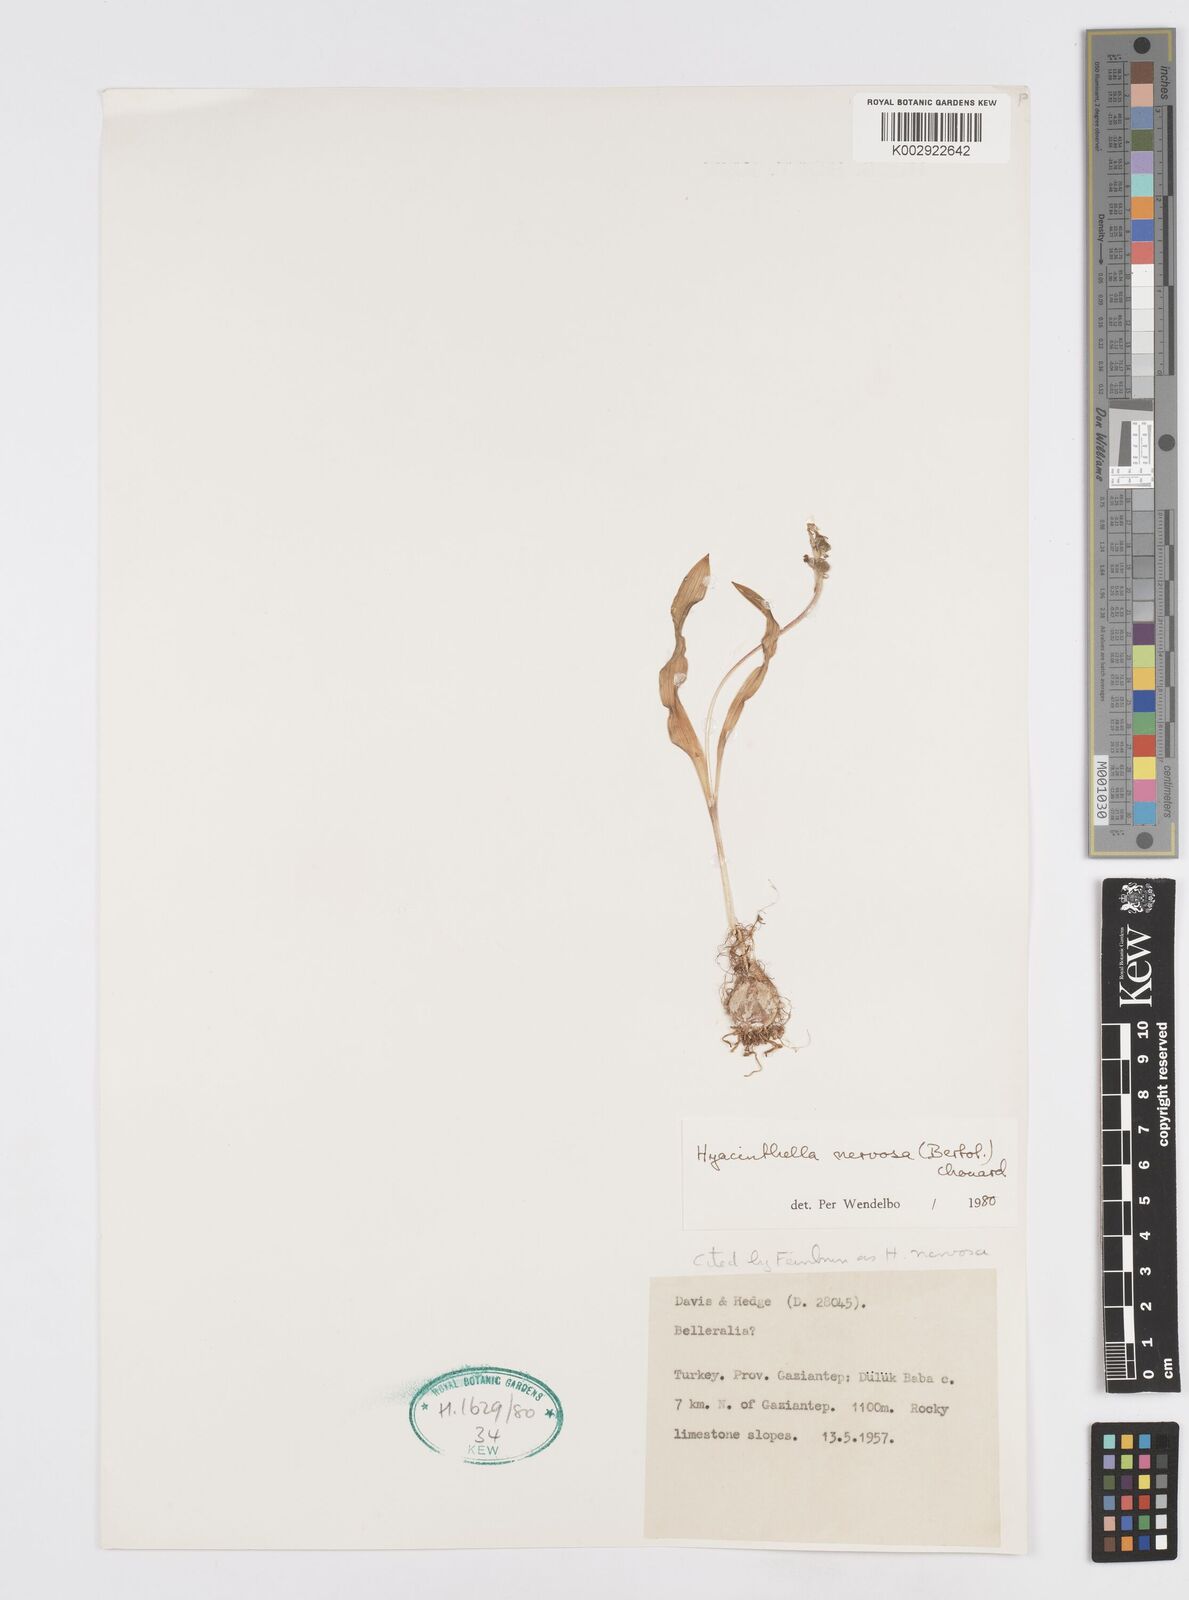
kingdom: Plantae
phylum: Tracheophyta
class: Liliopsida
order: Asparagales
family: Asparagaceae
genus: Hyacinthella
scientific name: Hyacinthella nervosa
